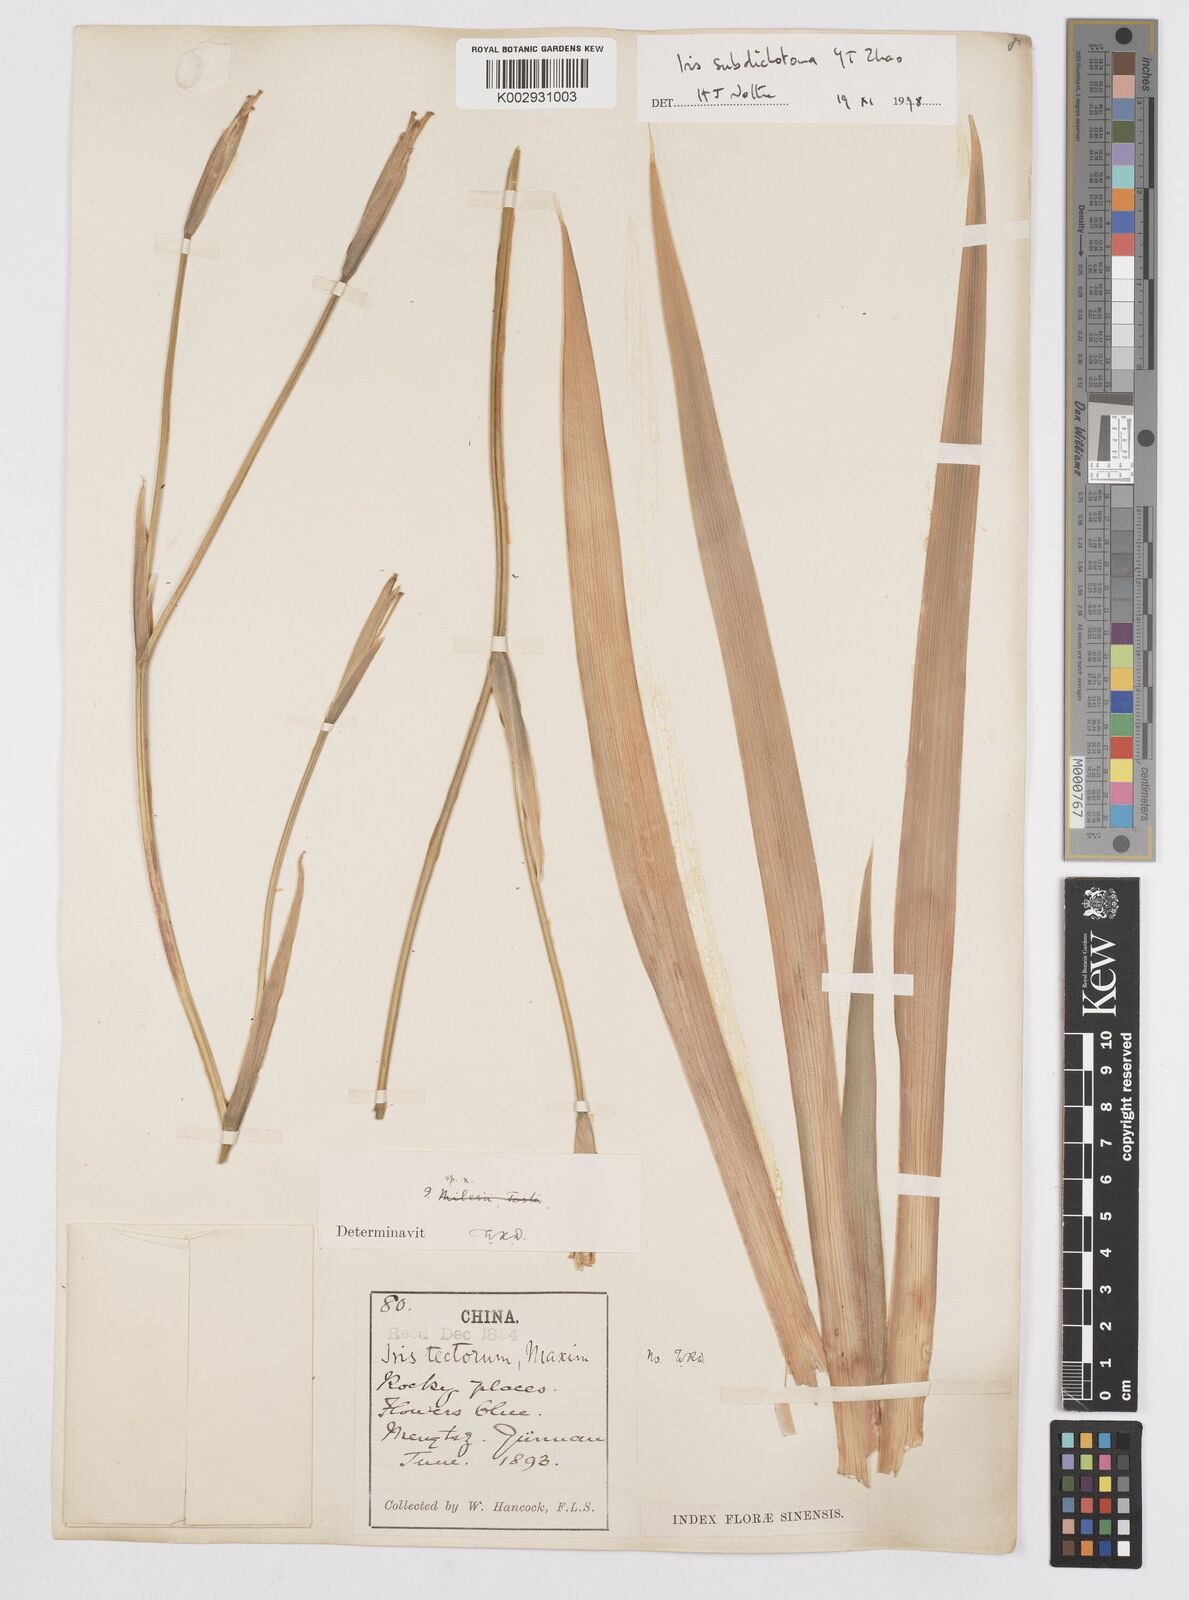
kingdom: Plantae
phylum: Tracheophyta
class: Liliopsida
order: Asparagales
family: Iridaceae
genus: Iris
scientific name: Iris subdichotoma
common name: Zhongdian iris
